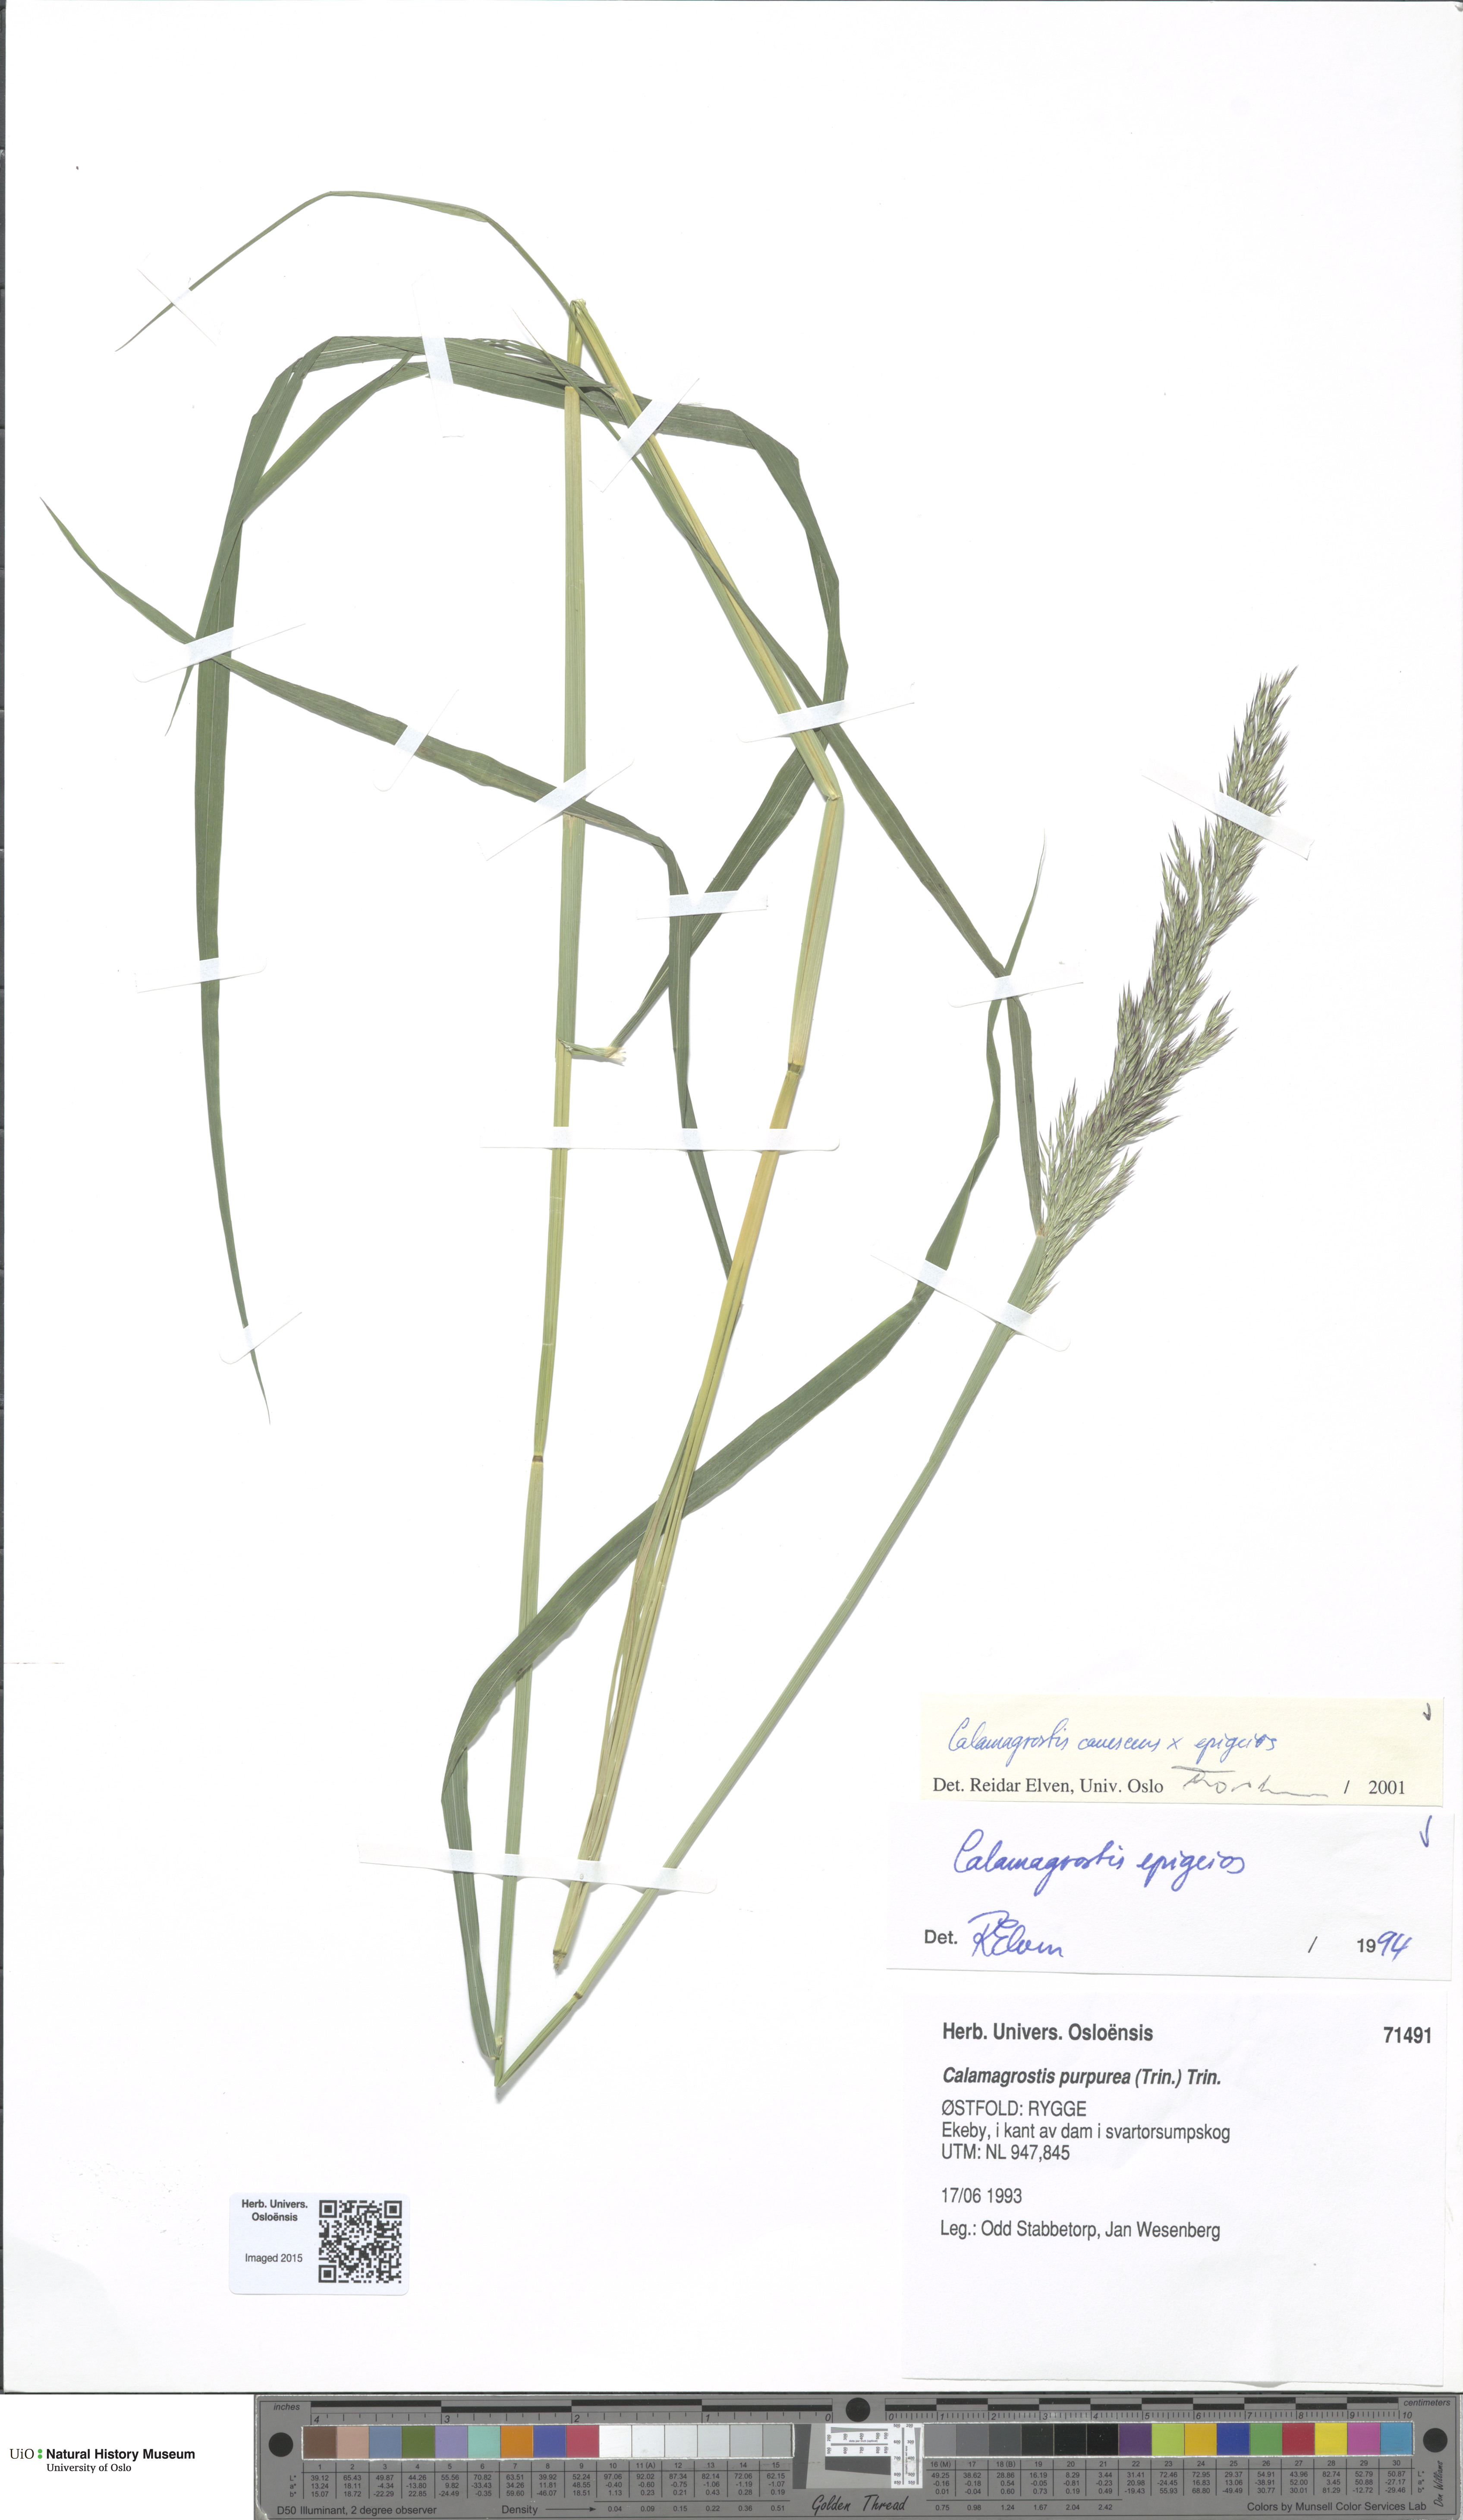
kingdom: Plantae
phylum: Tracheophyta
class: Liliopsida
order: Poales
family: Poaceae
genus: Calamagrostis
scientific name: Calamagrostis
